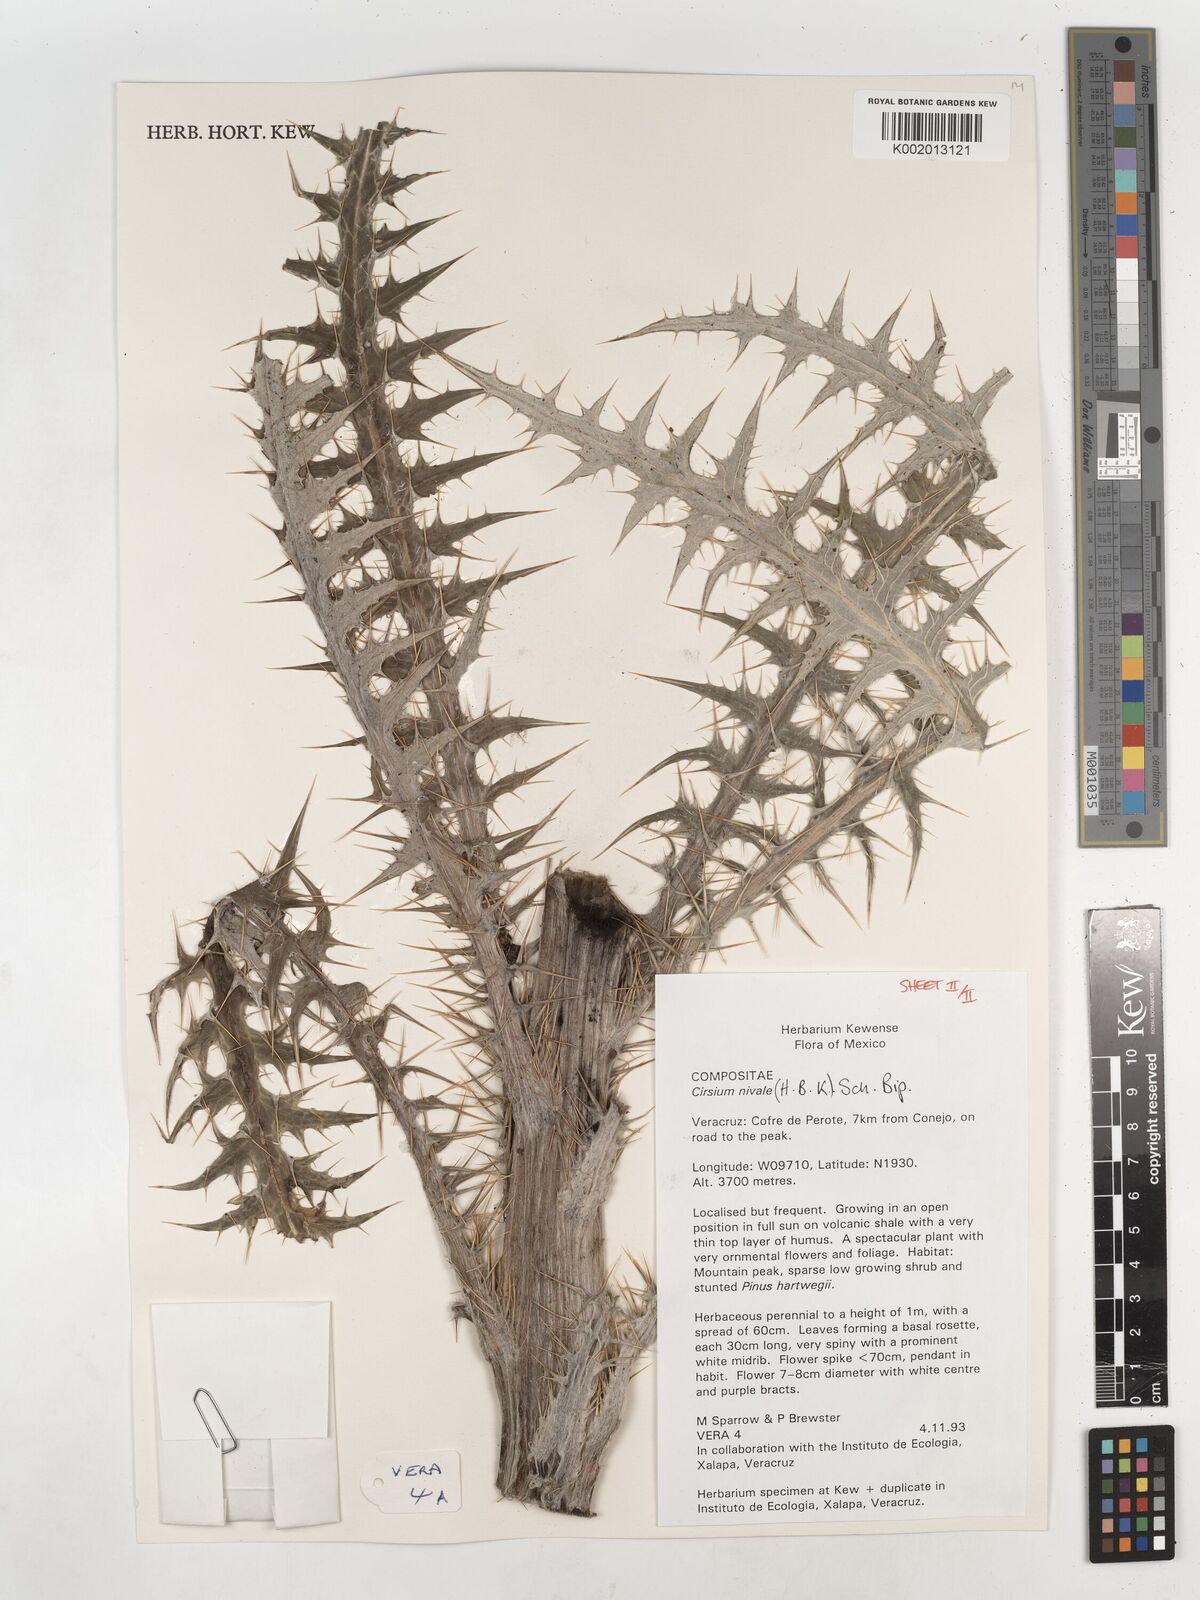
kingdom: Plantae
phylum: Tracheophyta
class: Magnoliopsida
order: Asterales
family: Asteraceae
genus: Cirsium
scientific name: Cirsium nivale
